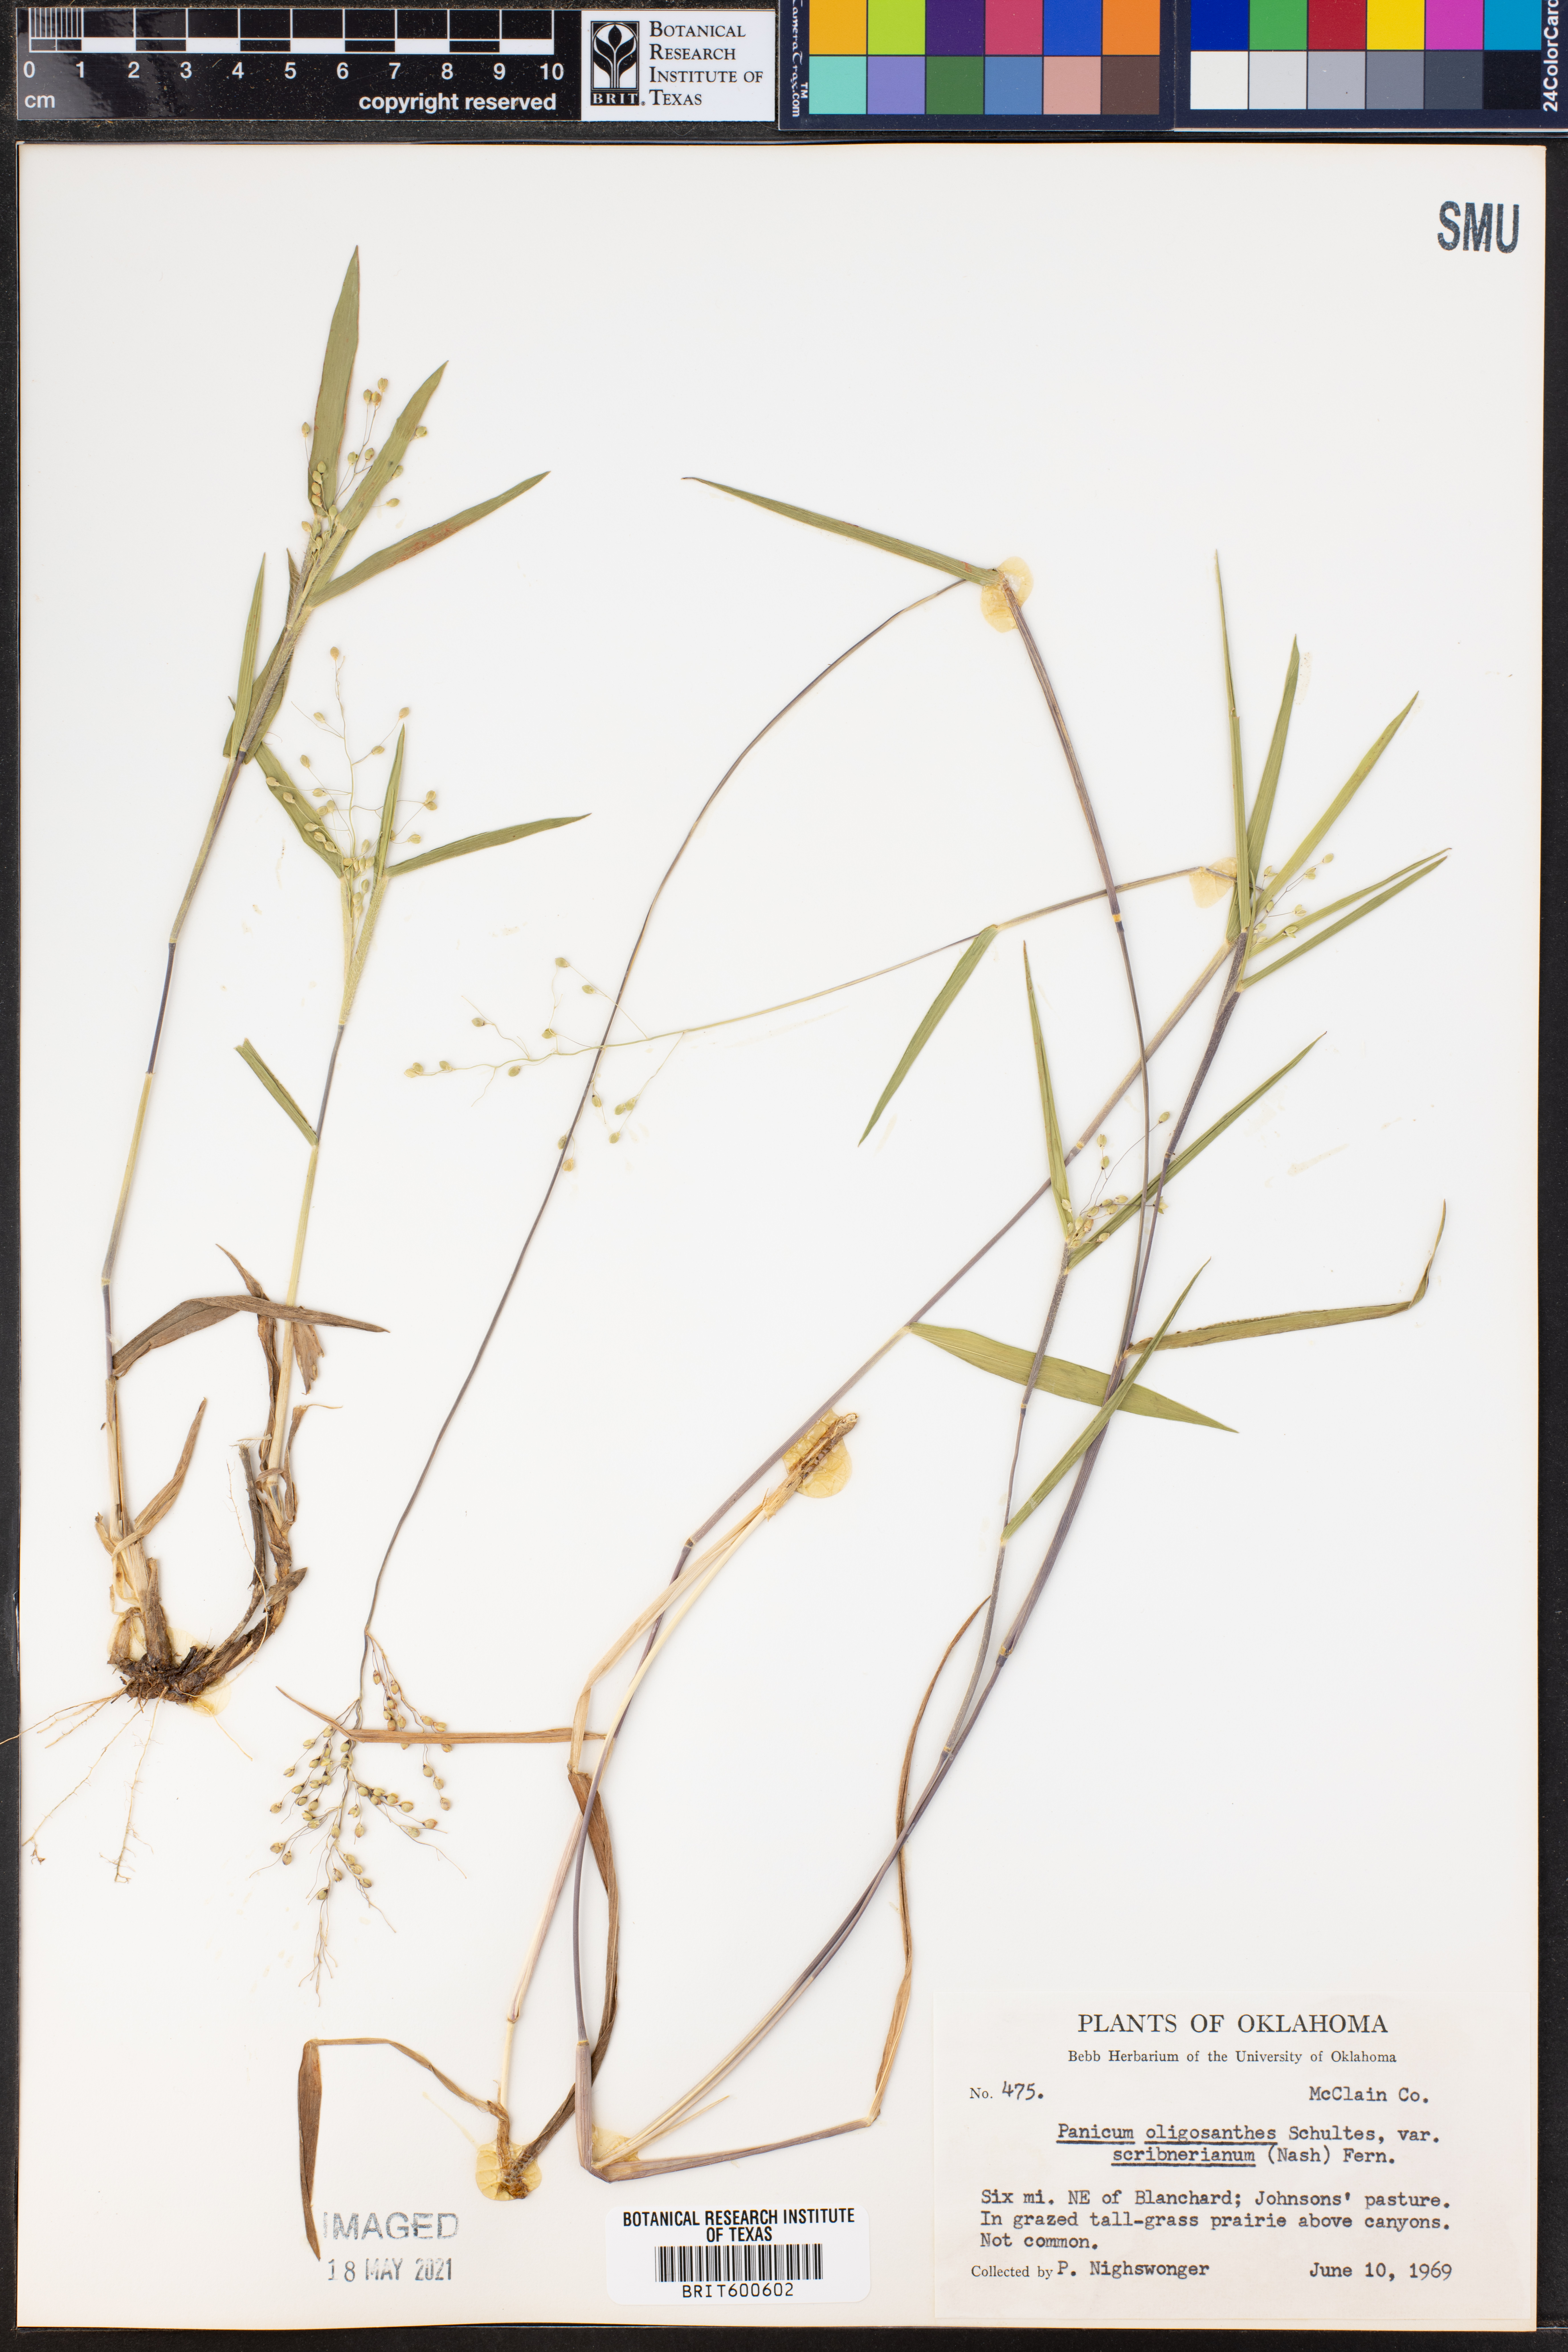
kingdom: Plantae
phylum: Tracheophyta
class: Liliopsida
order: Poales
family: Poaceae
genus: Dichanthelium
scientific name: Dichanthelium scribnerianum
